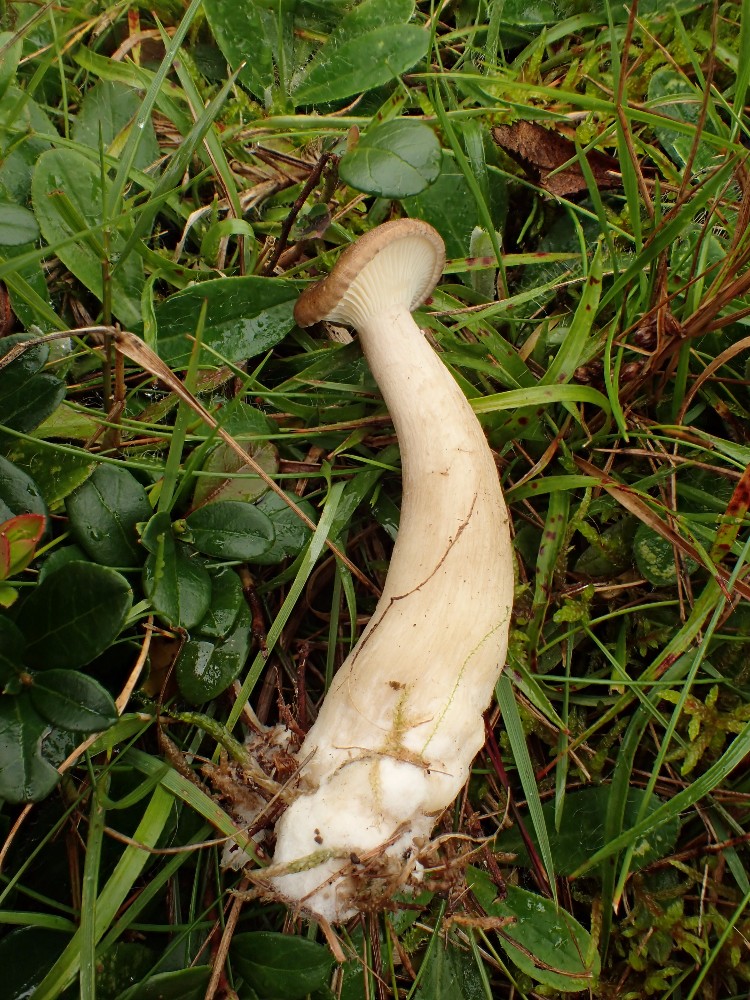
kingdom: Fungi
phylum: Basidiomycota
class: Agaricomycetes
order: Agaricales
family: Hygrophoraceae
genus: Ampulloclitocybe
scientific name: Ampulloclitocybe clavipes
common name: køllefod
